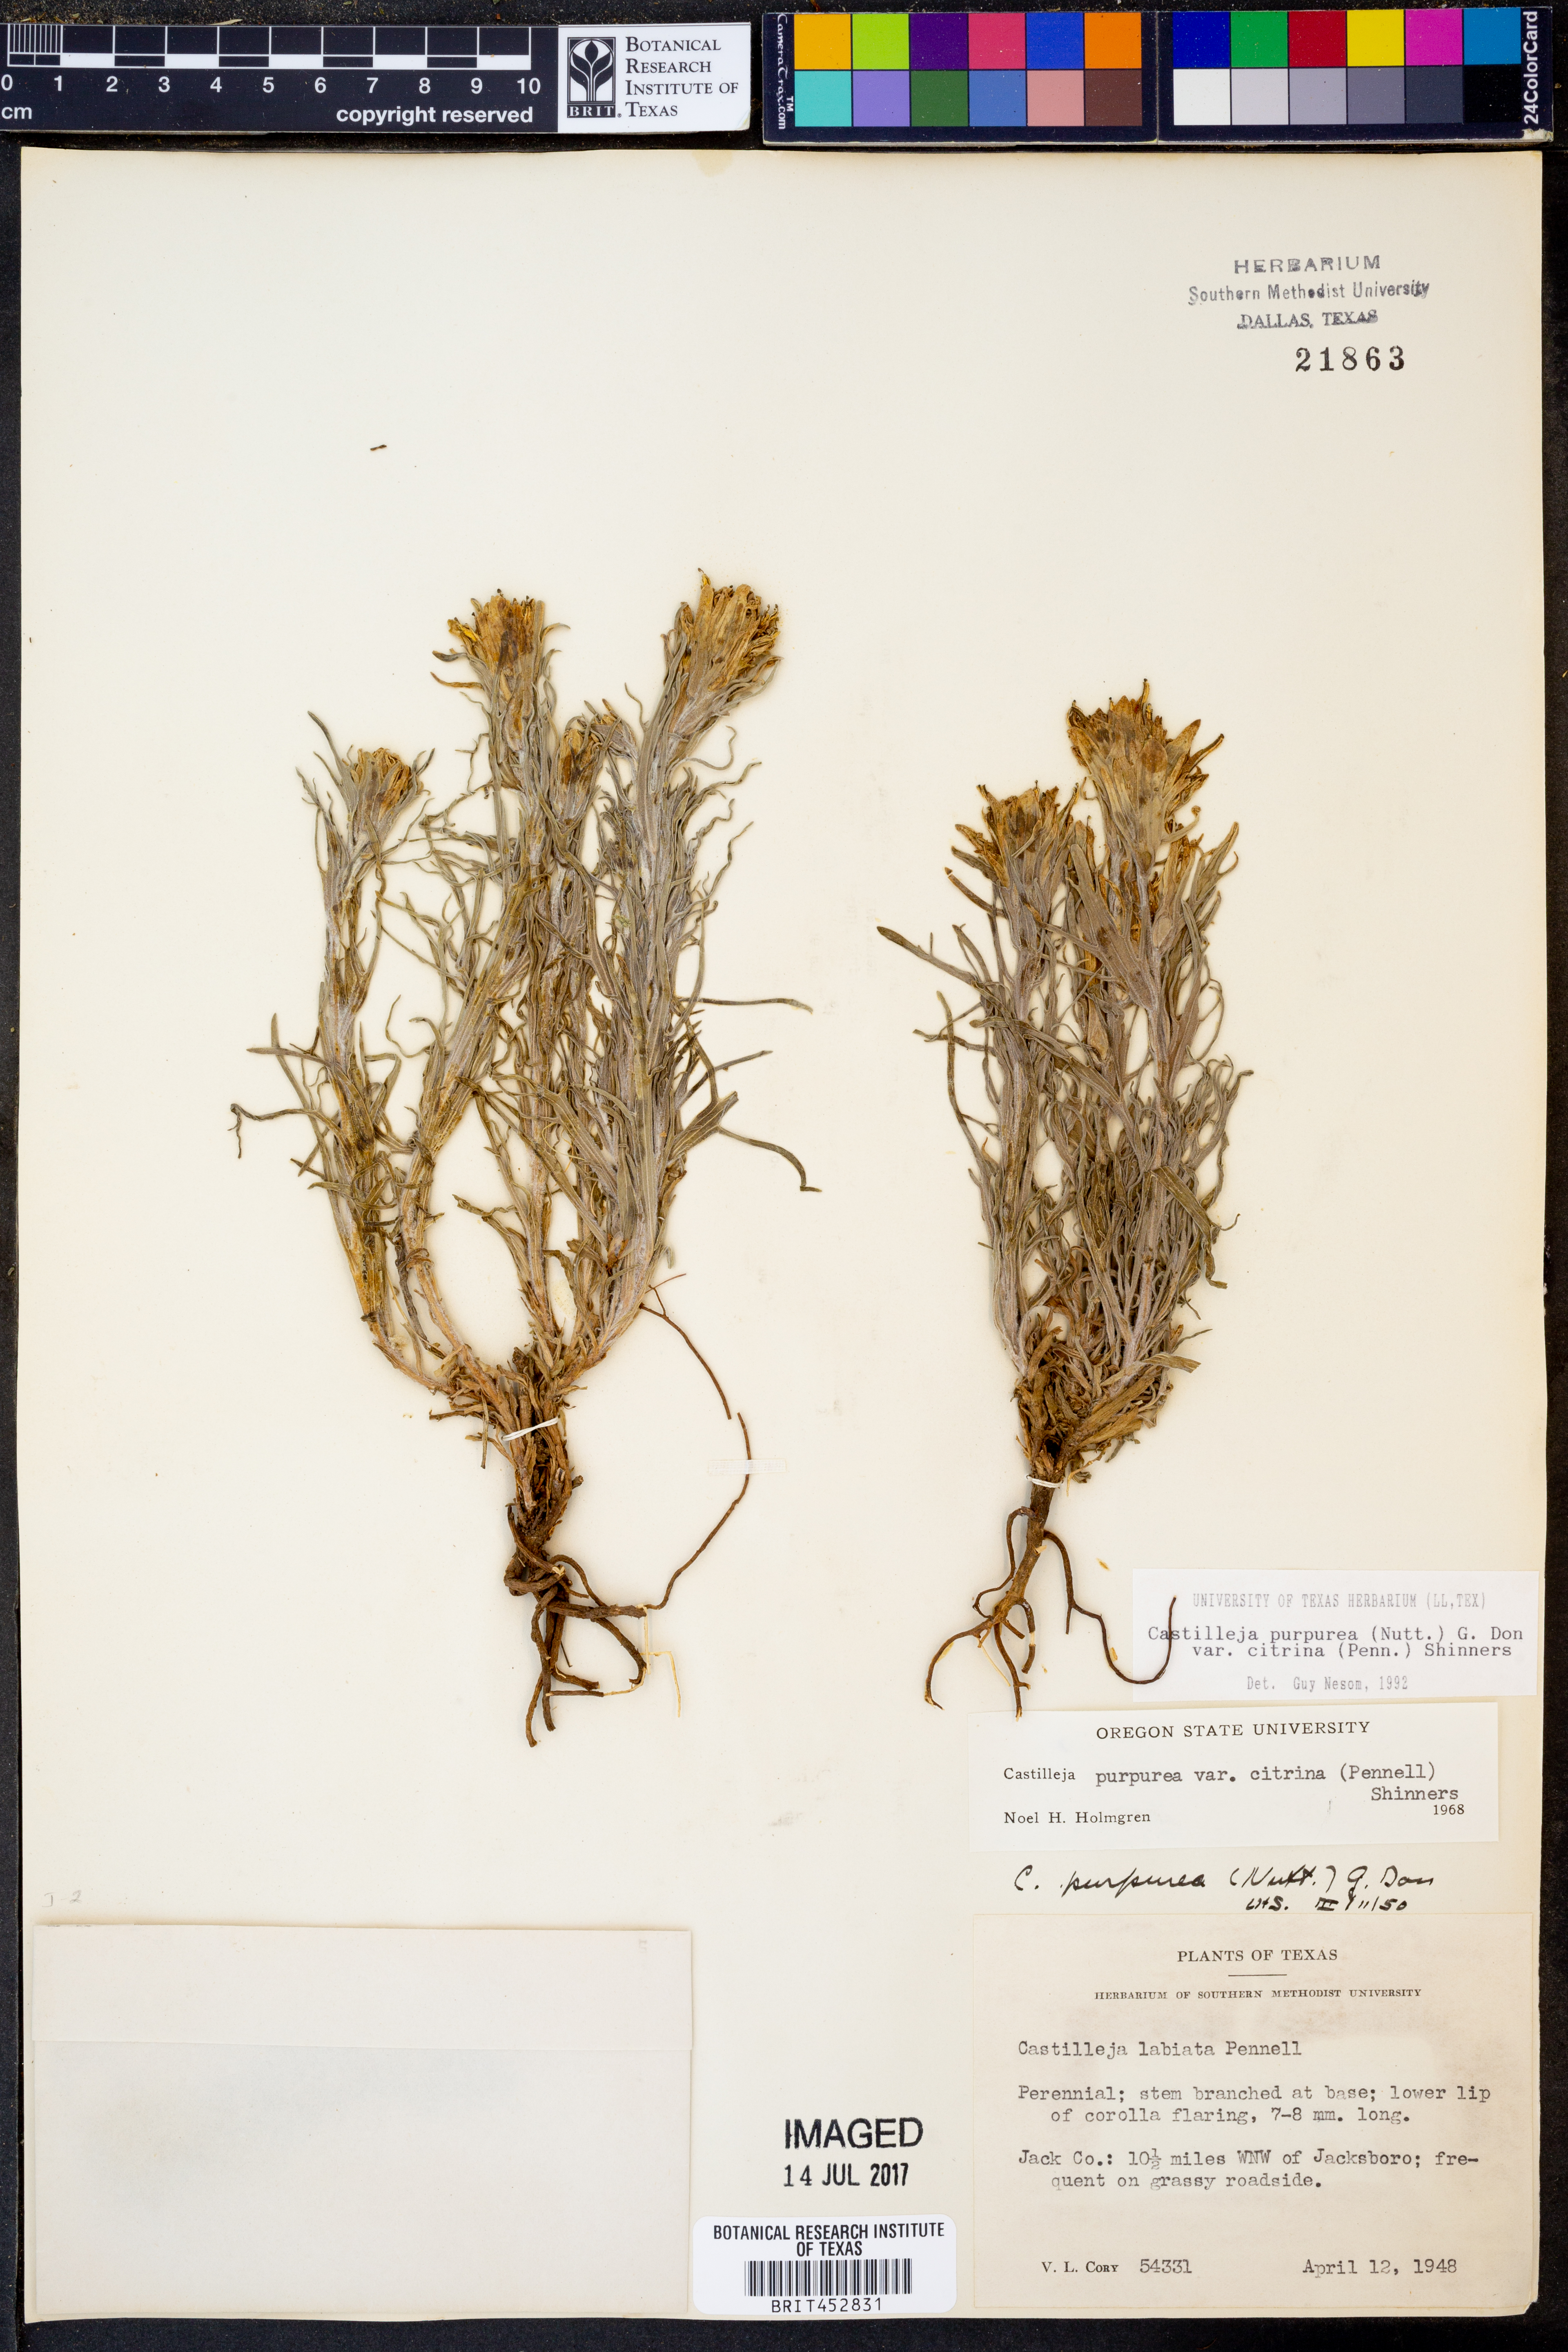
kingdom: Plantae
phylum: Tracheophyta
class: Magnoliopsida
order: Lamiales
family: Orobanchaceae
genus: Castilleja
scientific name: Castilleja citrina
